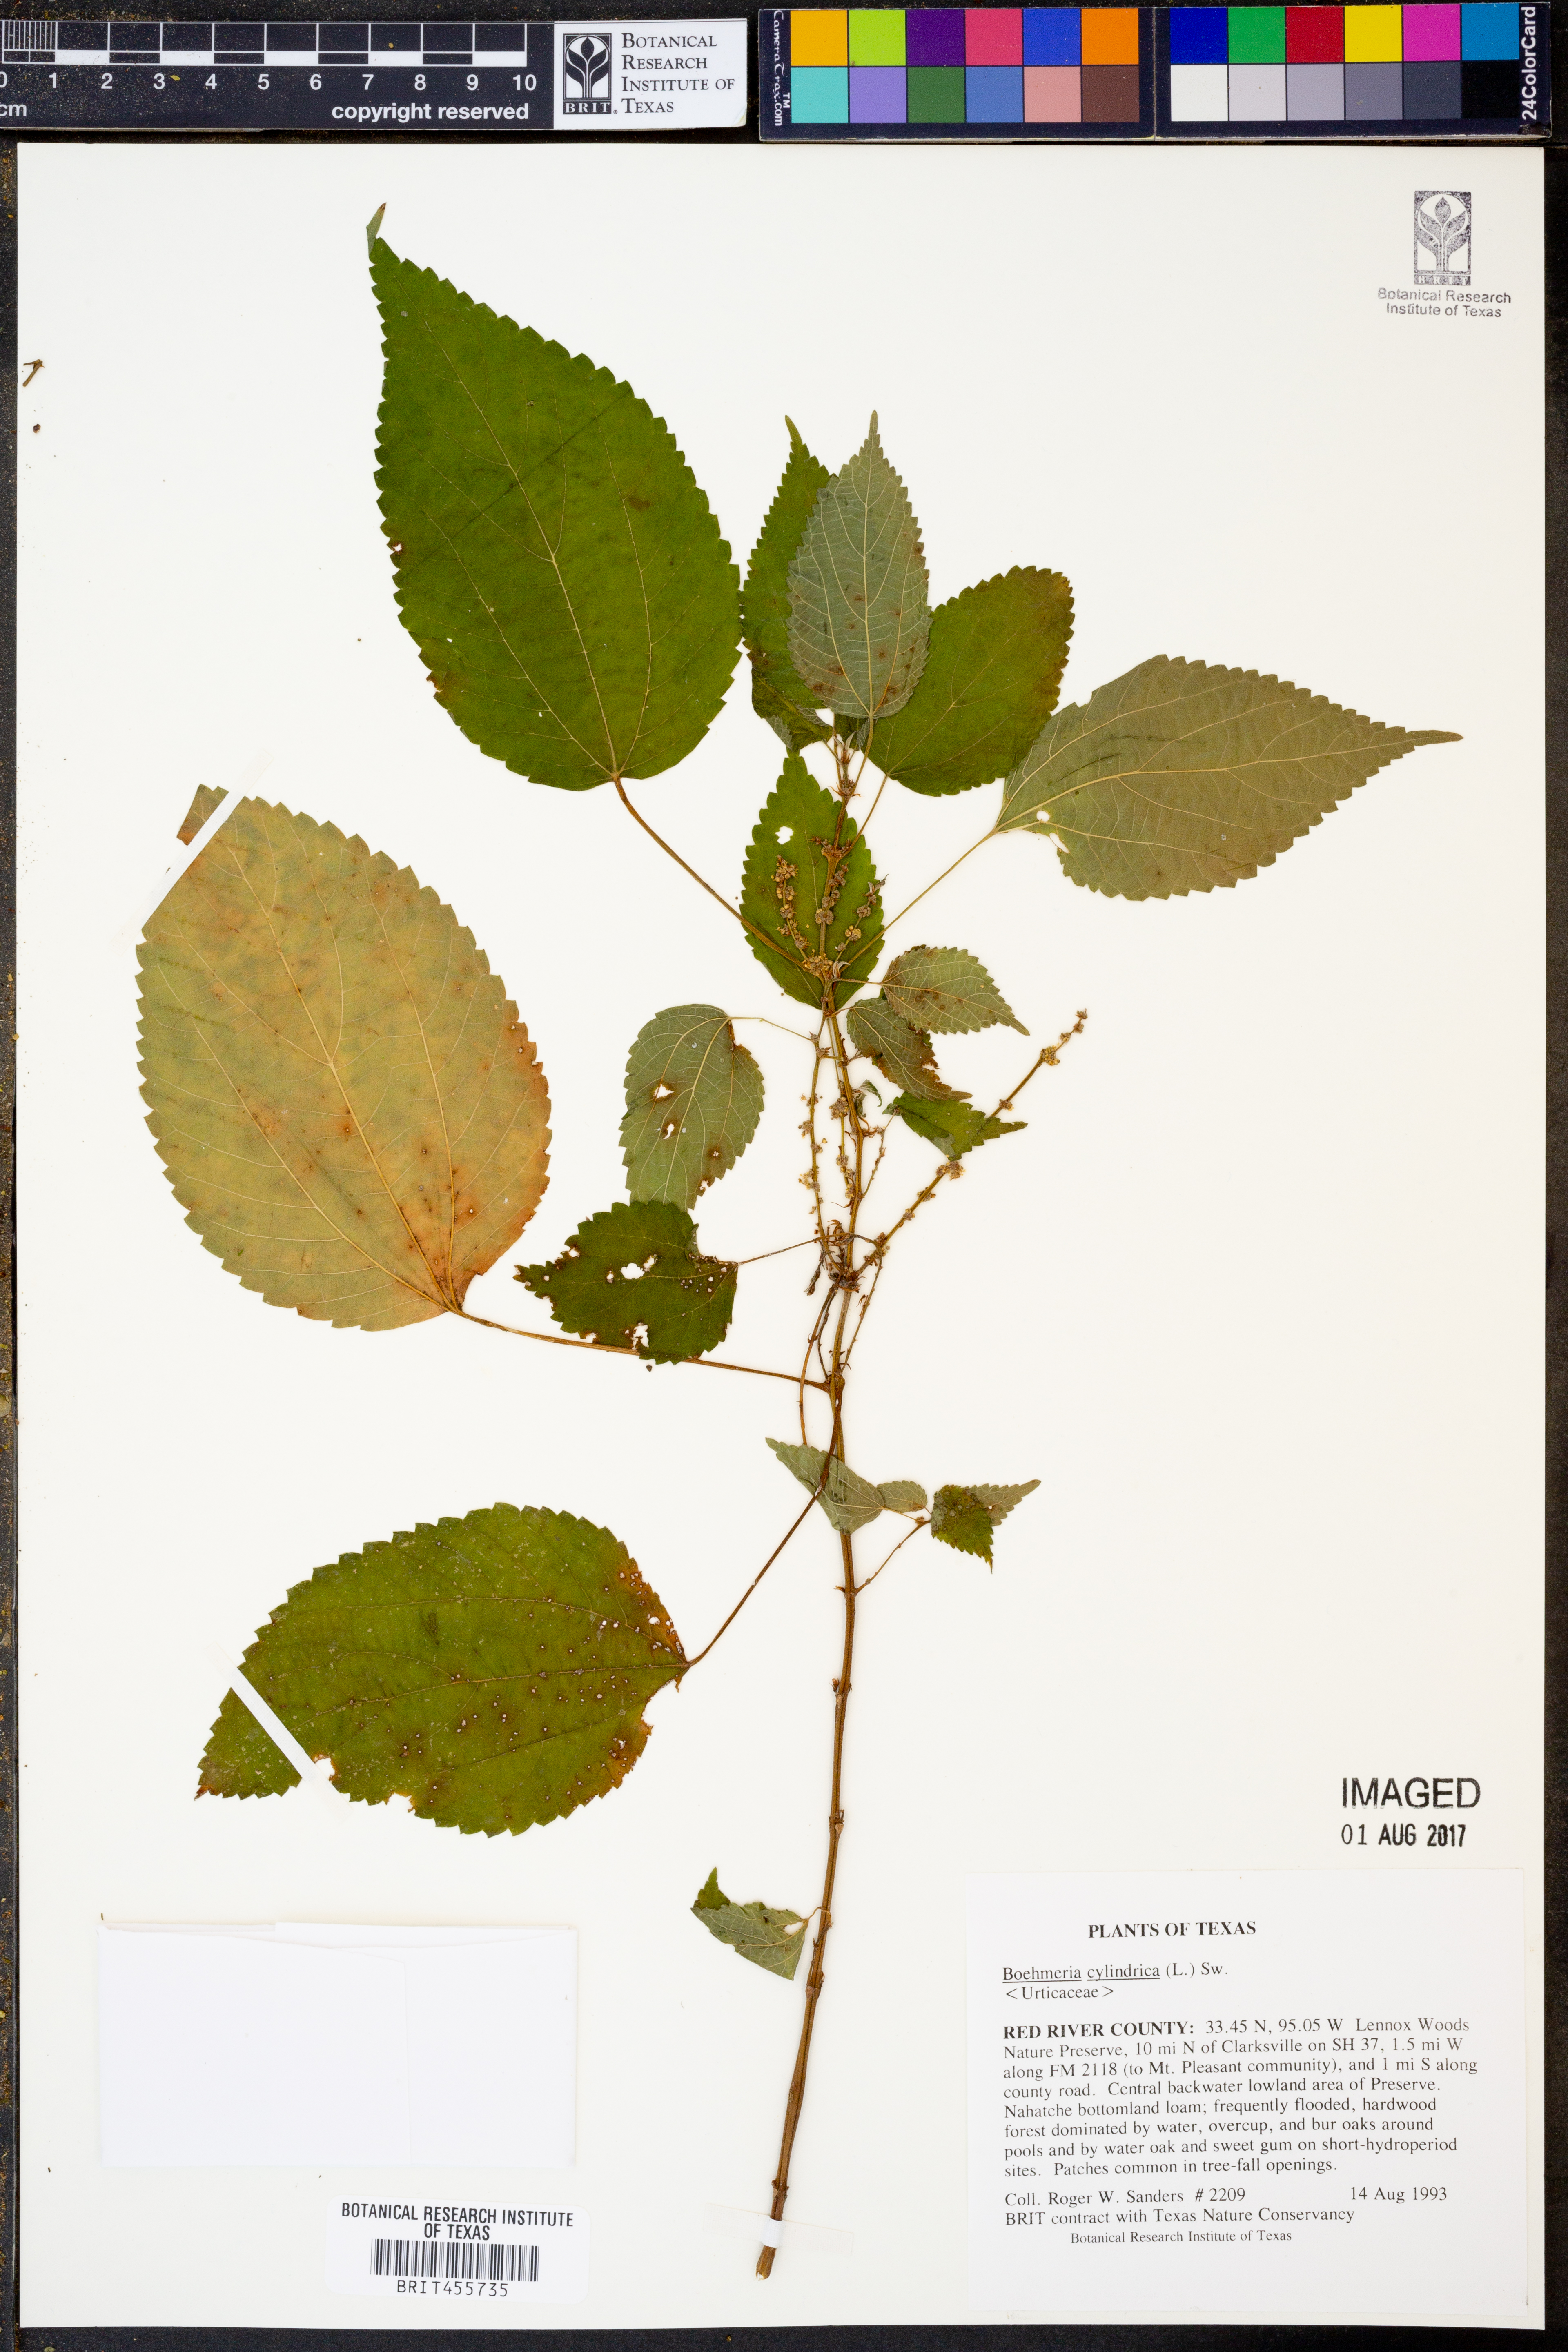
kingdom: Plantae
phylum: Tracheophyta
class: Magnoliopsida
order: Rosales
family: Urticaceae
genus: Boehmeria
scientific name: Boehmeria cylindrica
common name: Bog-hemp
